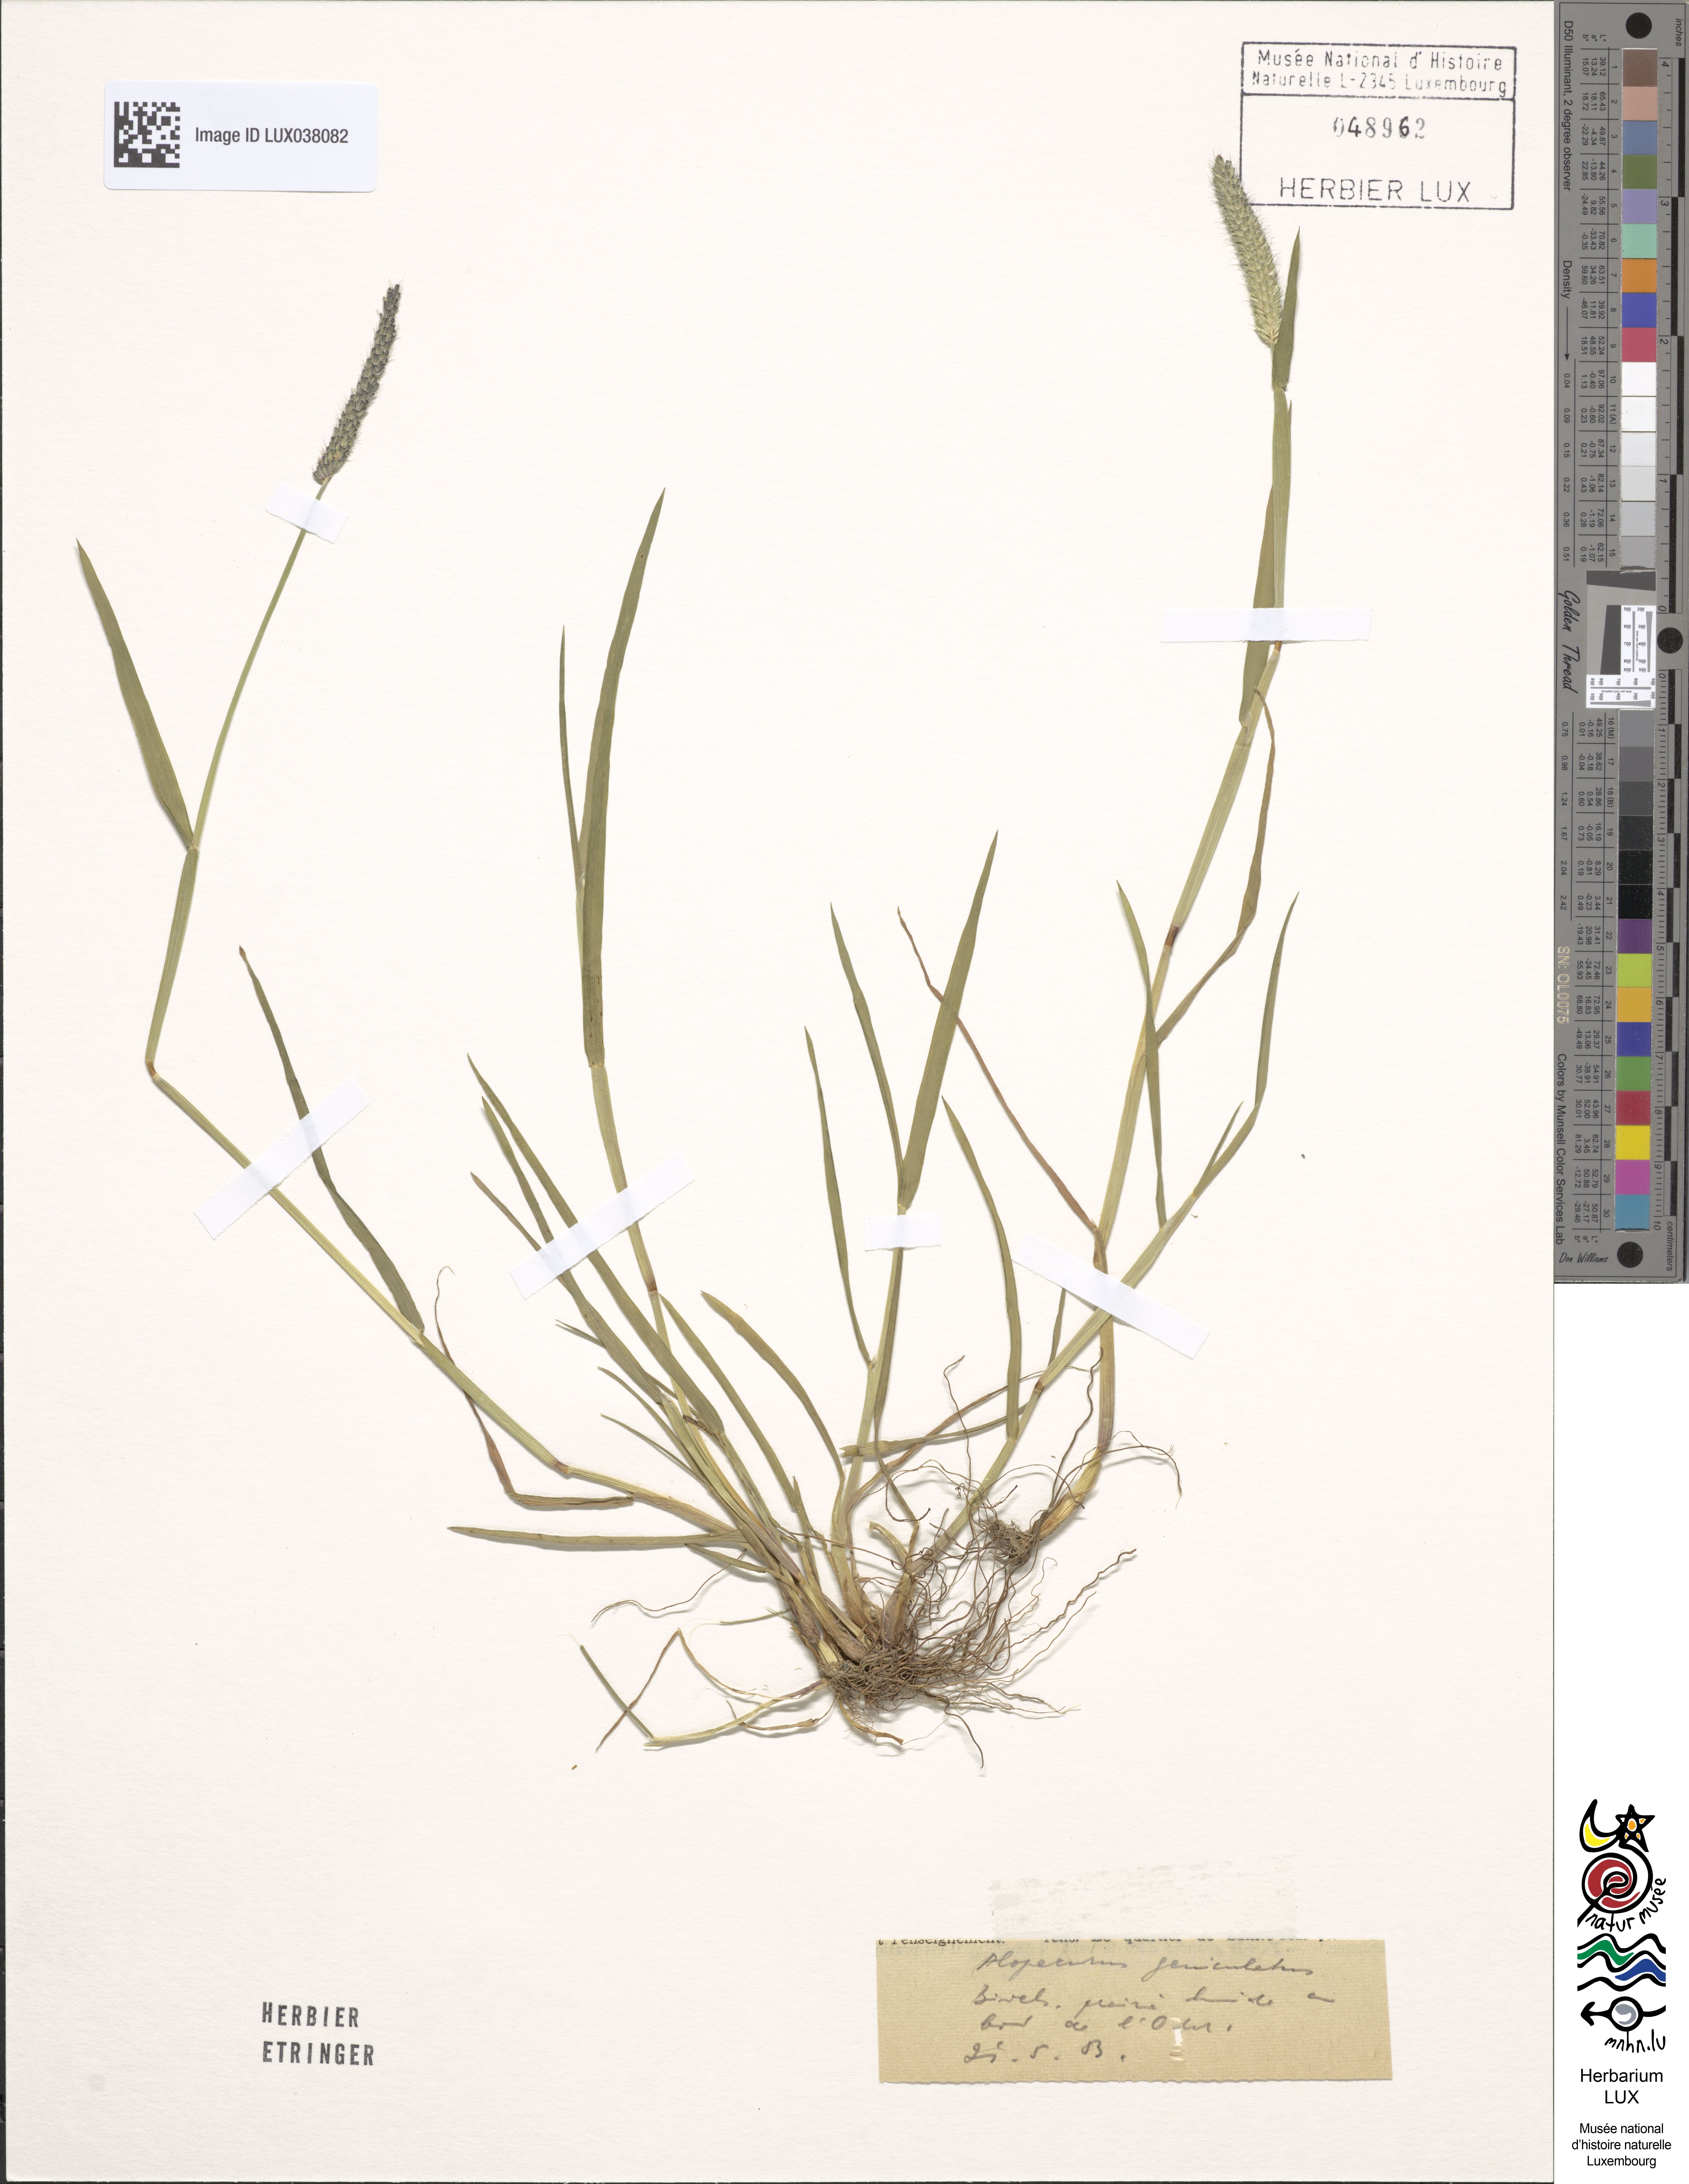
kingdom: Plantae
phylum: Tracheophyta
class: Liliopsida
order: Poales
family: Poaceae
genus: Alopecurus
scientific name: Alopecurus geniculatus
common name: Water foxtail
